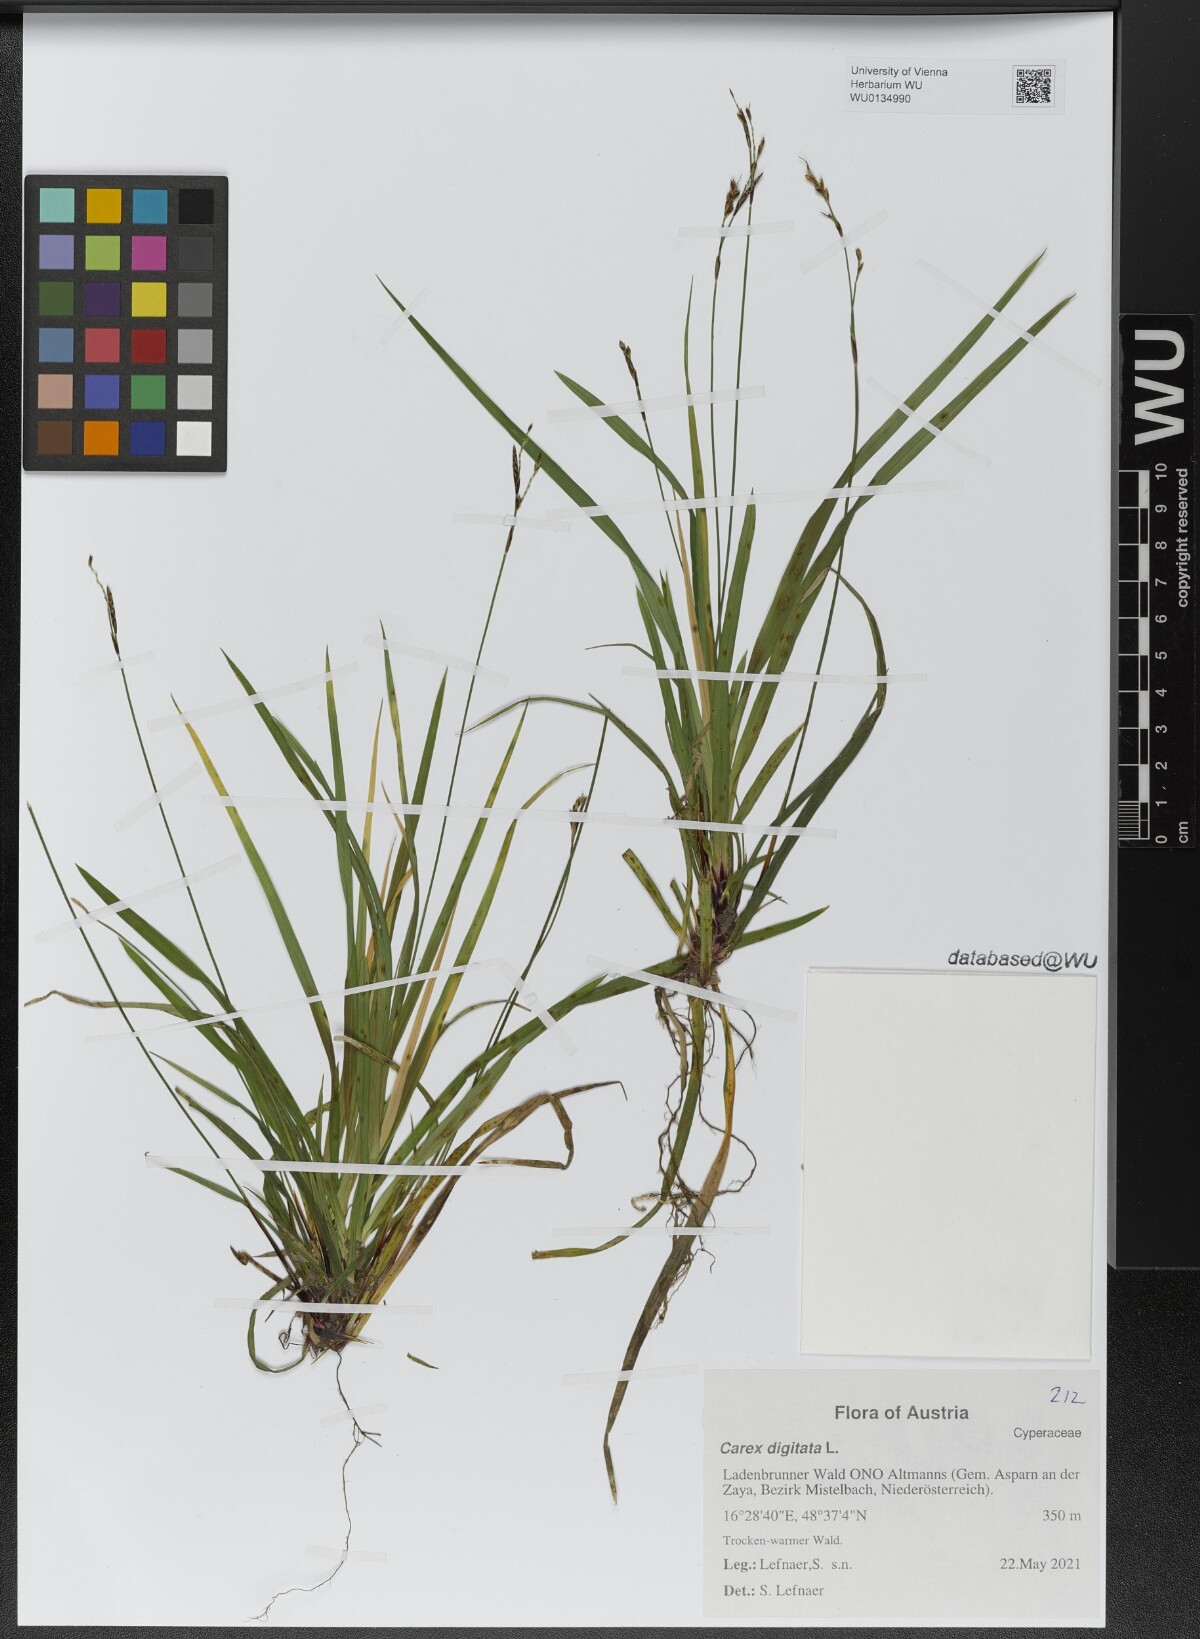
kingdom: Plantae
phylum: Tracheophyta
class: Liliopsida
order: Poales
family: Cyperaceae
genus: Carex
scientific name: Carex digitata
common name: Fingered sedge
